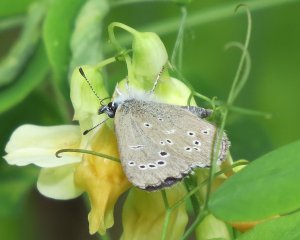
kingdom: Animalia
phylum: Arthropoda
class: Insecta
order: Lepidoptera
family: Lycaenidae
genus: Glaucopsyche
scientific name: Glaucopsyche lygdamus
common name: Silvery Blue
